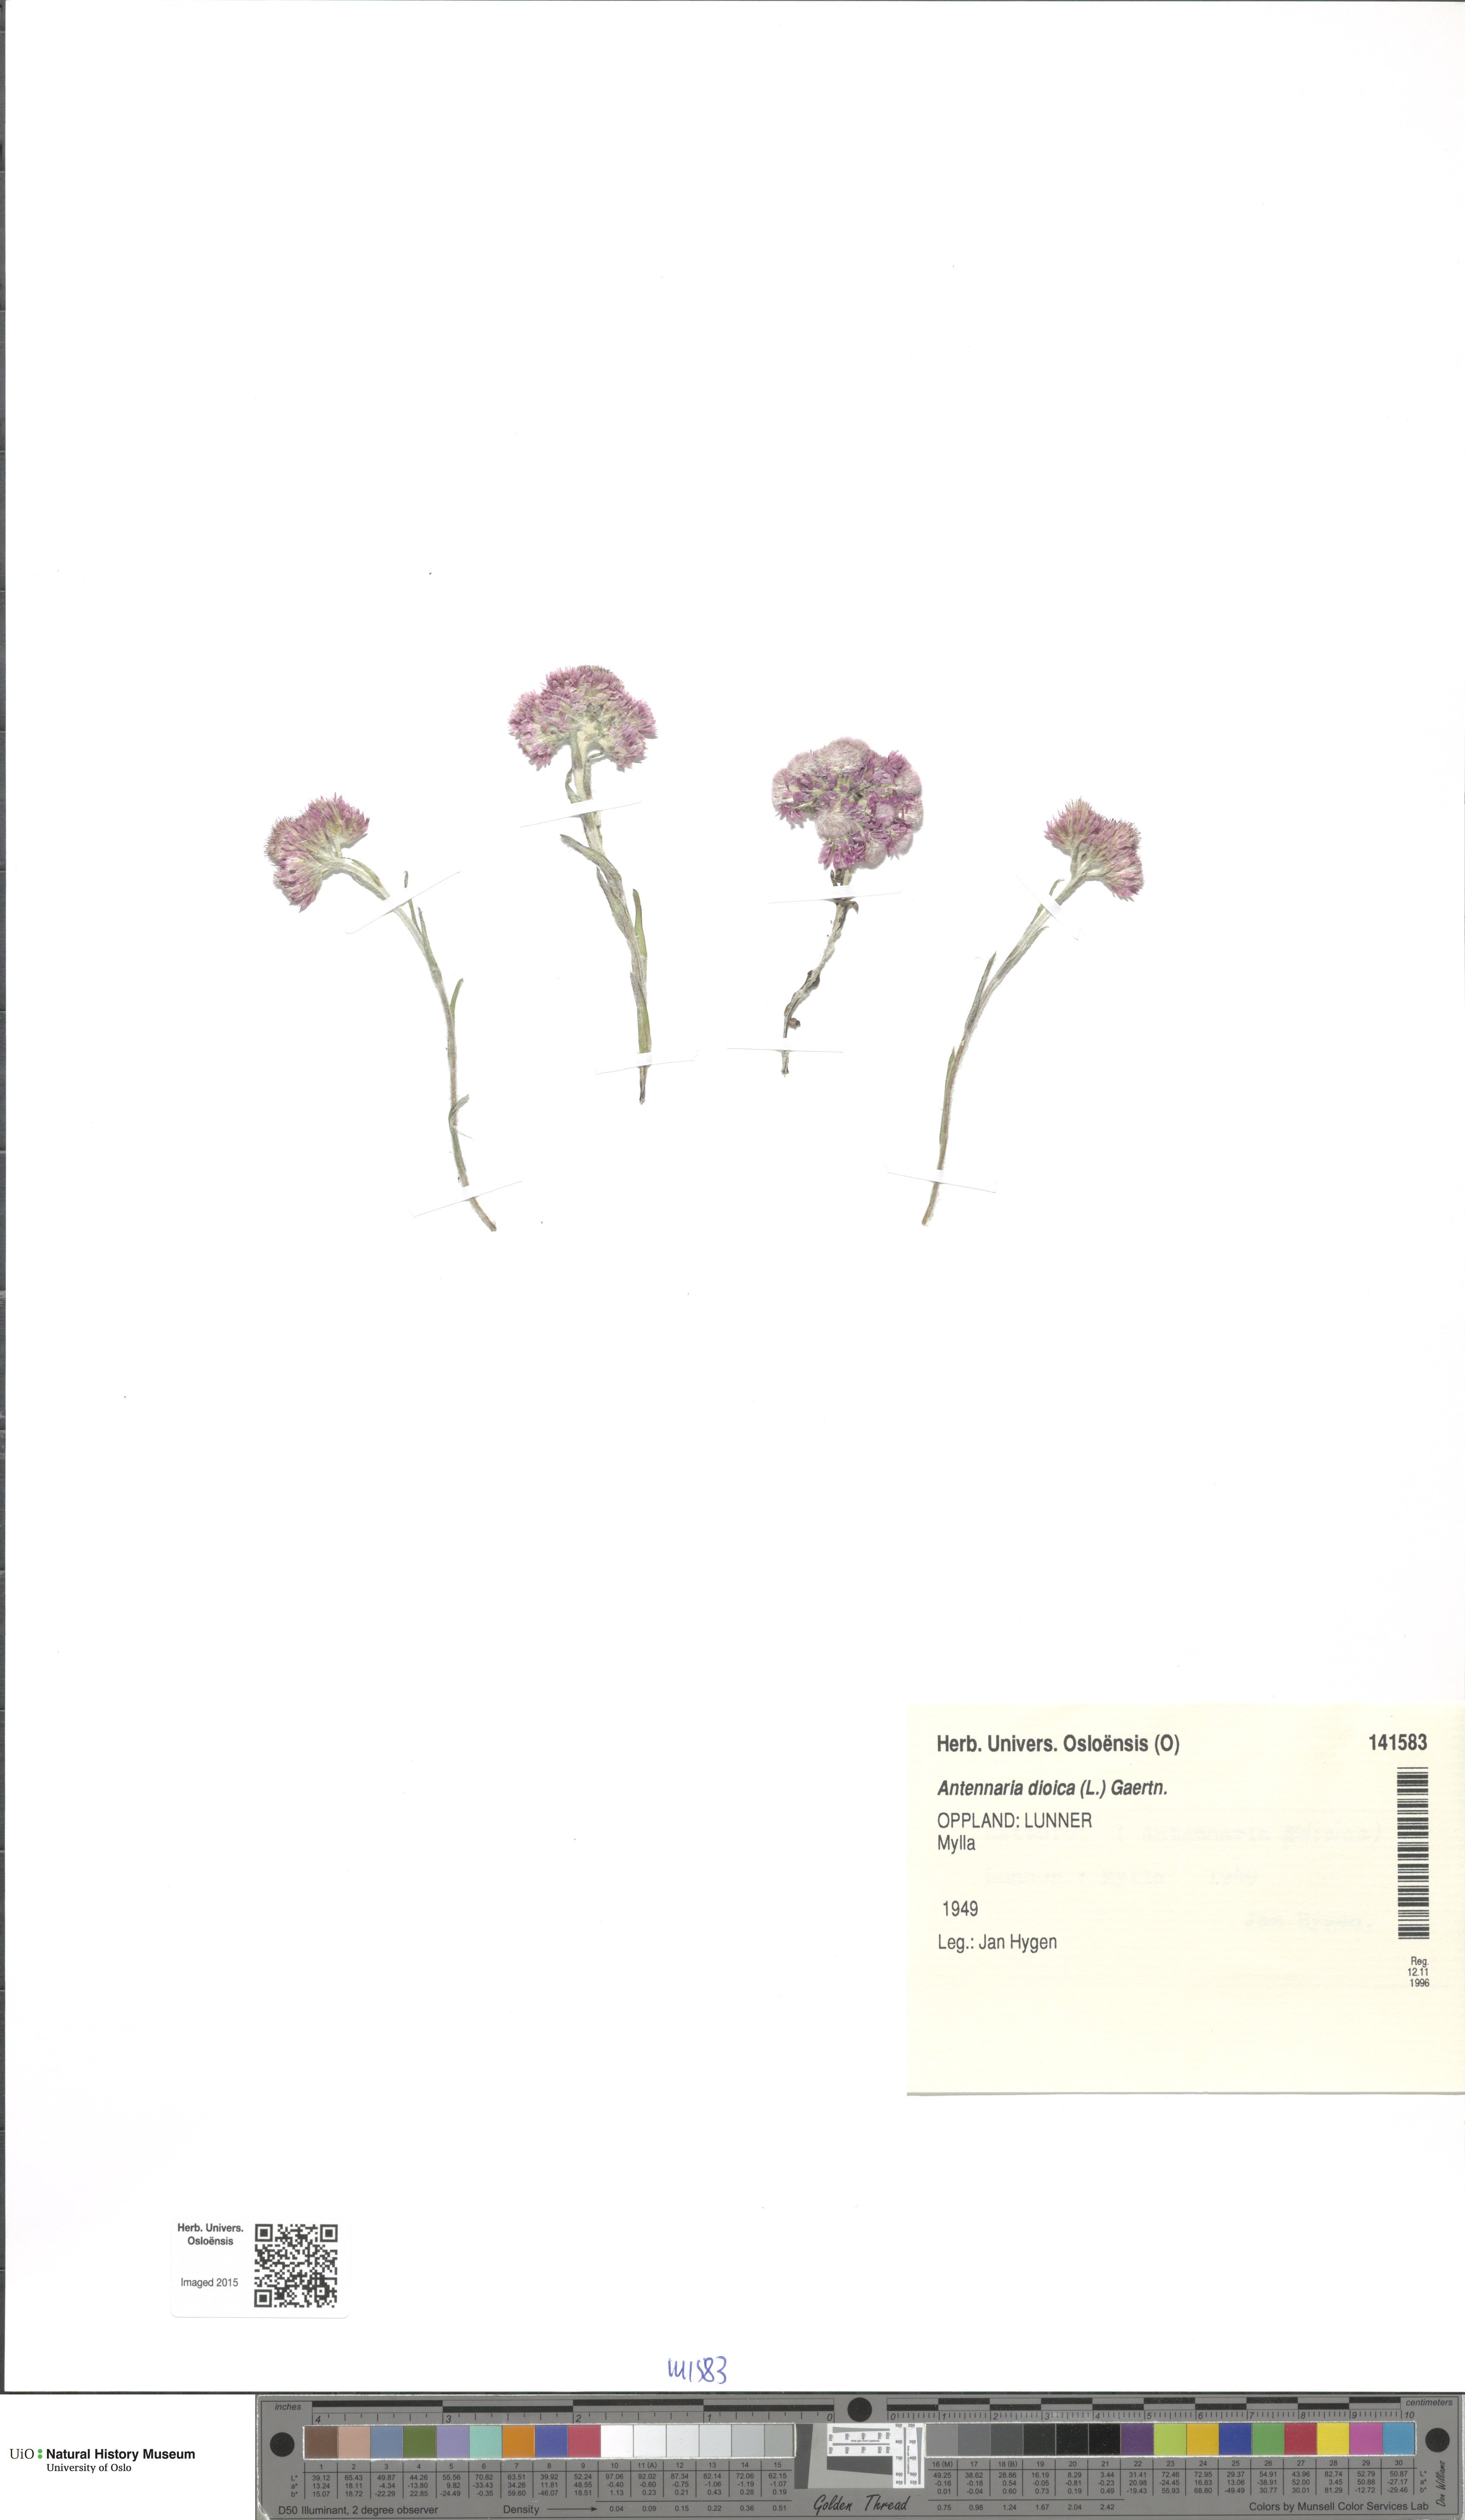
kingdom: Plantae
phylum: Tracheophyta
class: Magnoliopsida
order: Asterales
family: Asteraceae
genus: Antennaria
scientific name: Antennaria dioica
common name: Mountain everlasting
